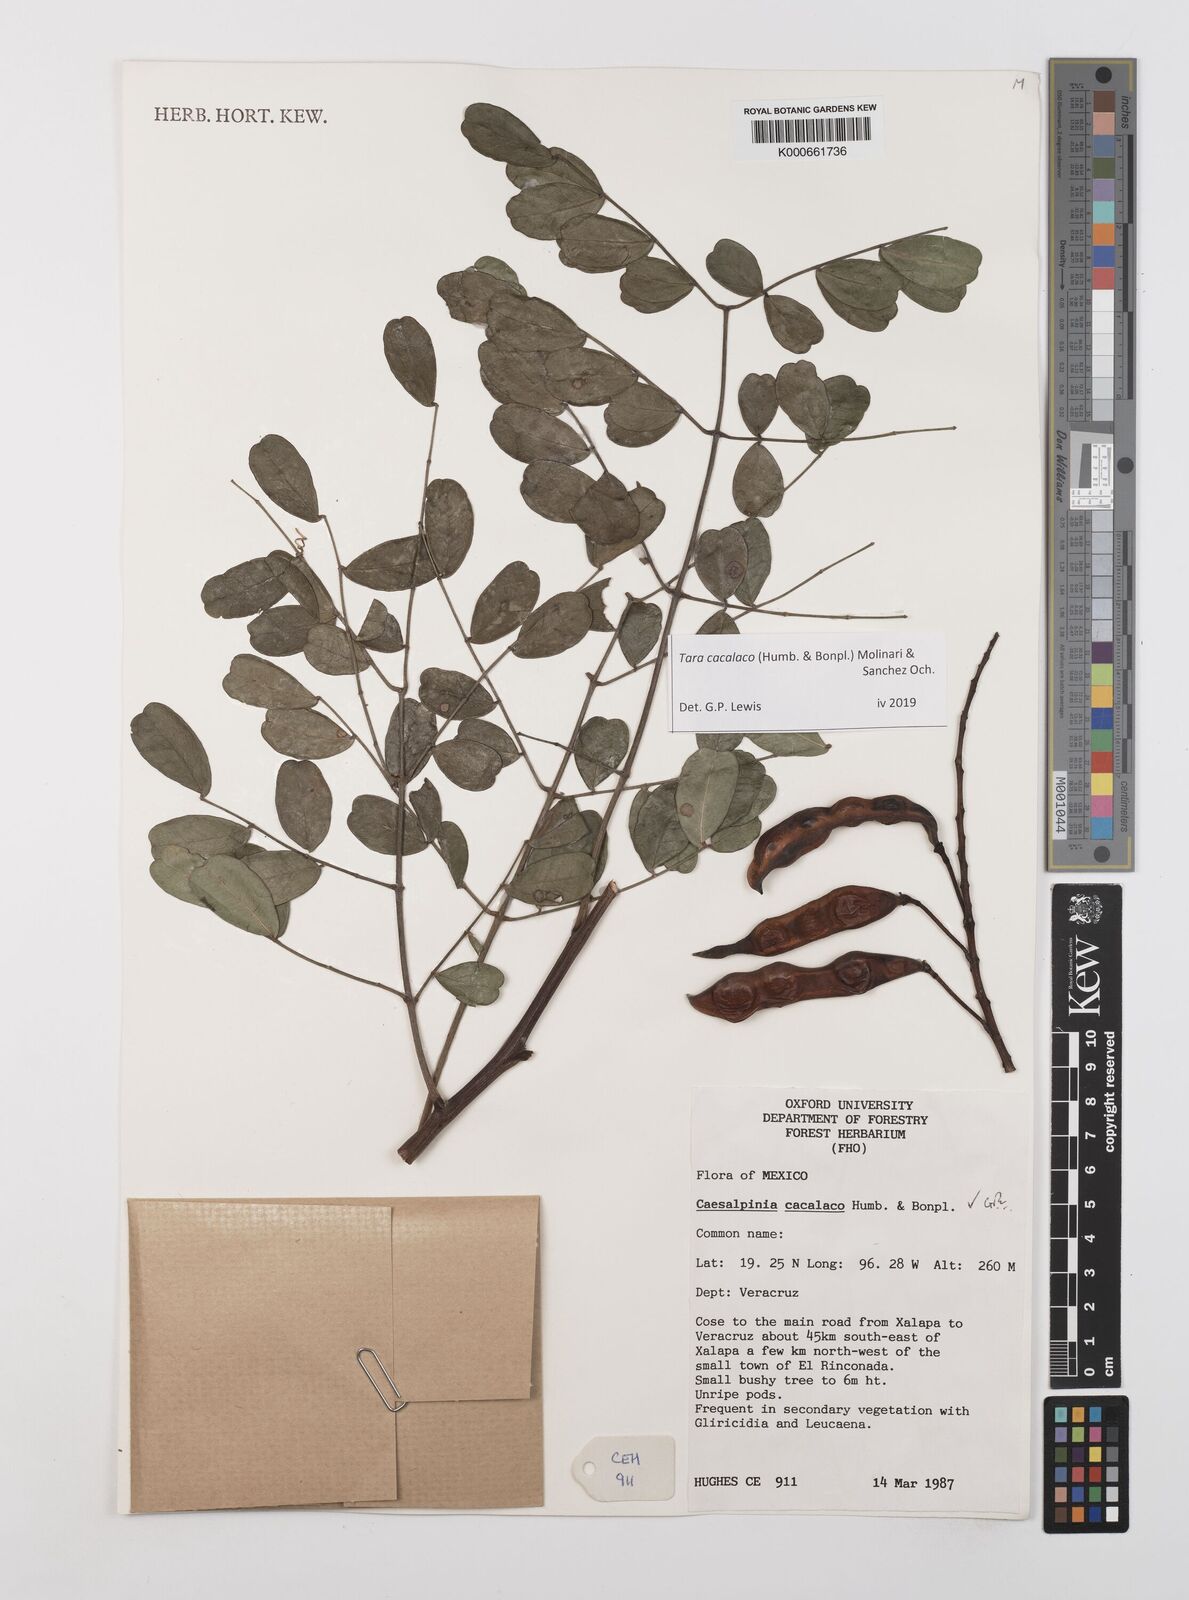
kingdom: Plantae
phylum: Tracheophyta
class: Magnoliopsida
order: Fabales
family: Fabaceae
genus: Tara
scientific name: Tara cacalaco
